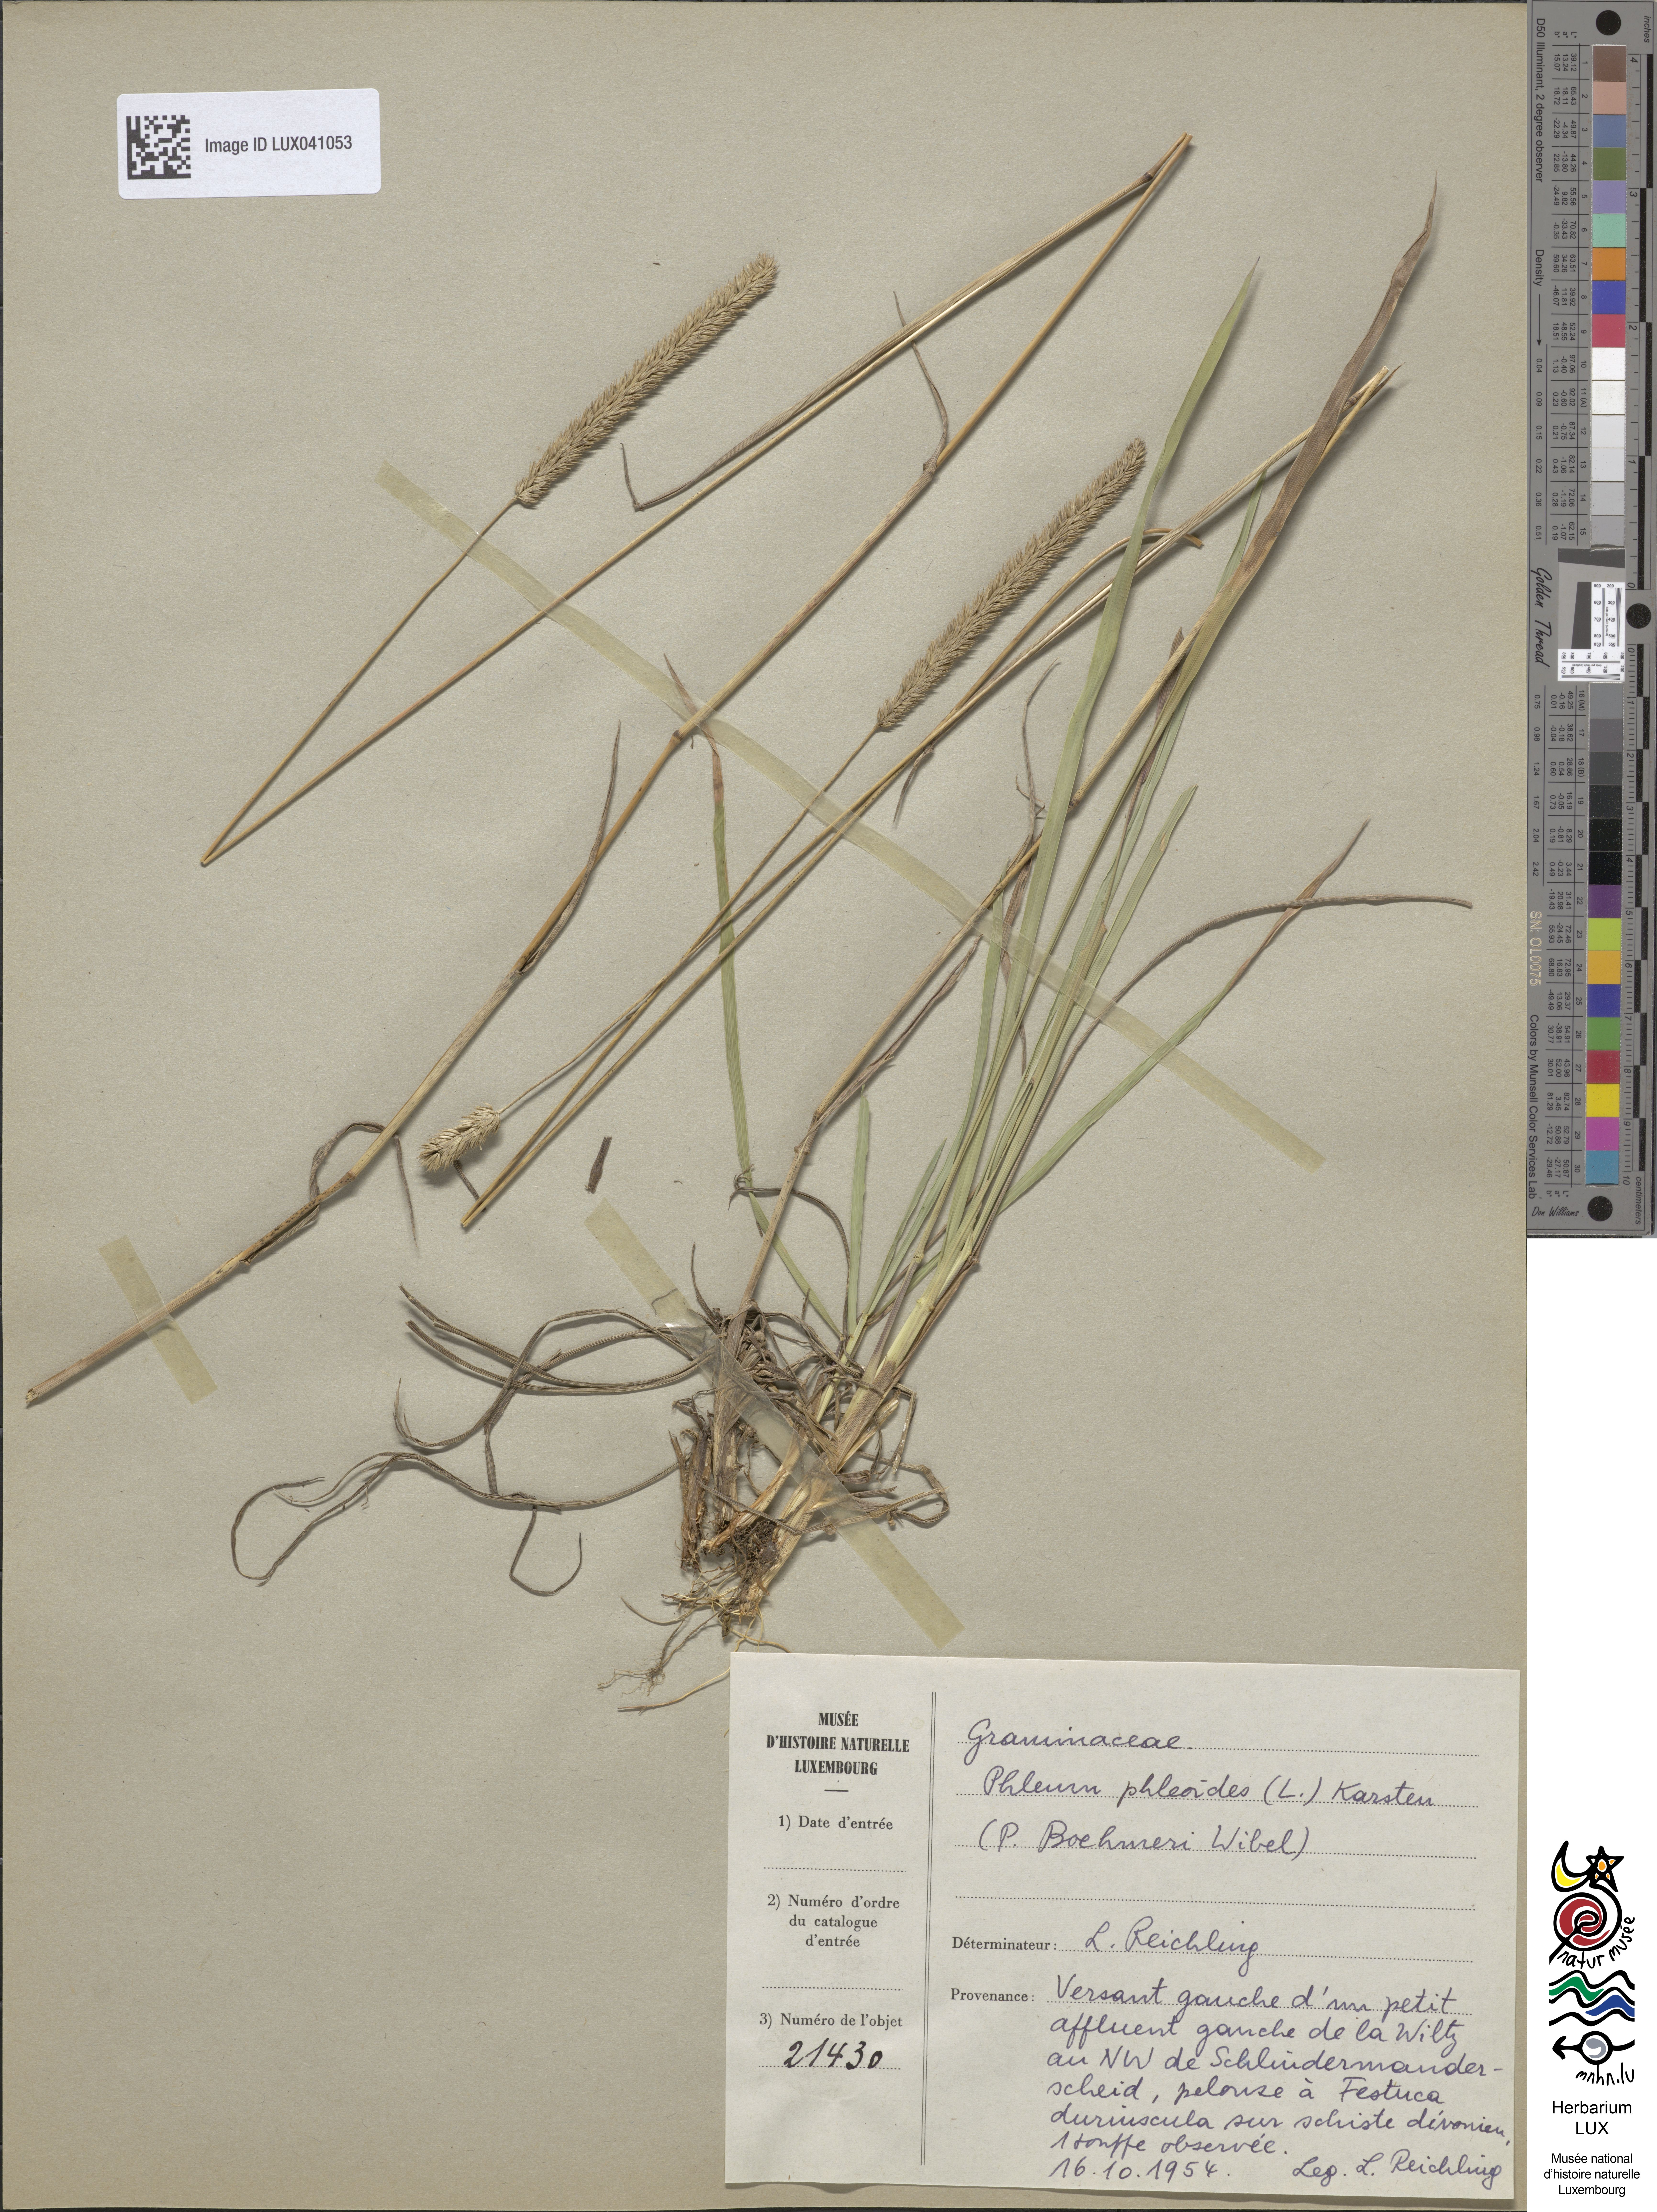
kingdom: Plantae
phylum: Tracheophyta
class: Liliopsida
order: Poales
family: Poaceae
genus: Phleum
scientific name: Phleum phleoides
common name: Purple-stem cat's-tail
